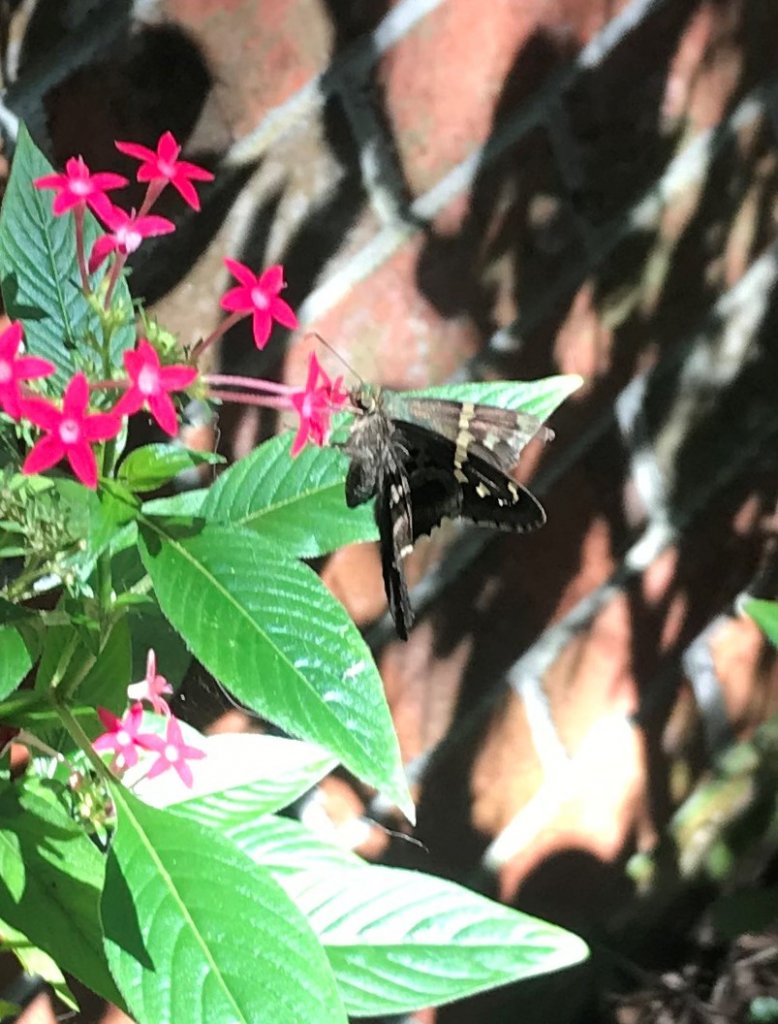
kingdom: Animalia
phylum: Arthropoda
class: Insecta
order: Lepidoptera
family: Hesperiidae
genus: Urbanus
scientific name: Urbanus proteus
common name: Long-tailed Skipper
